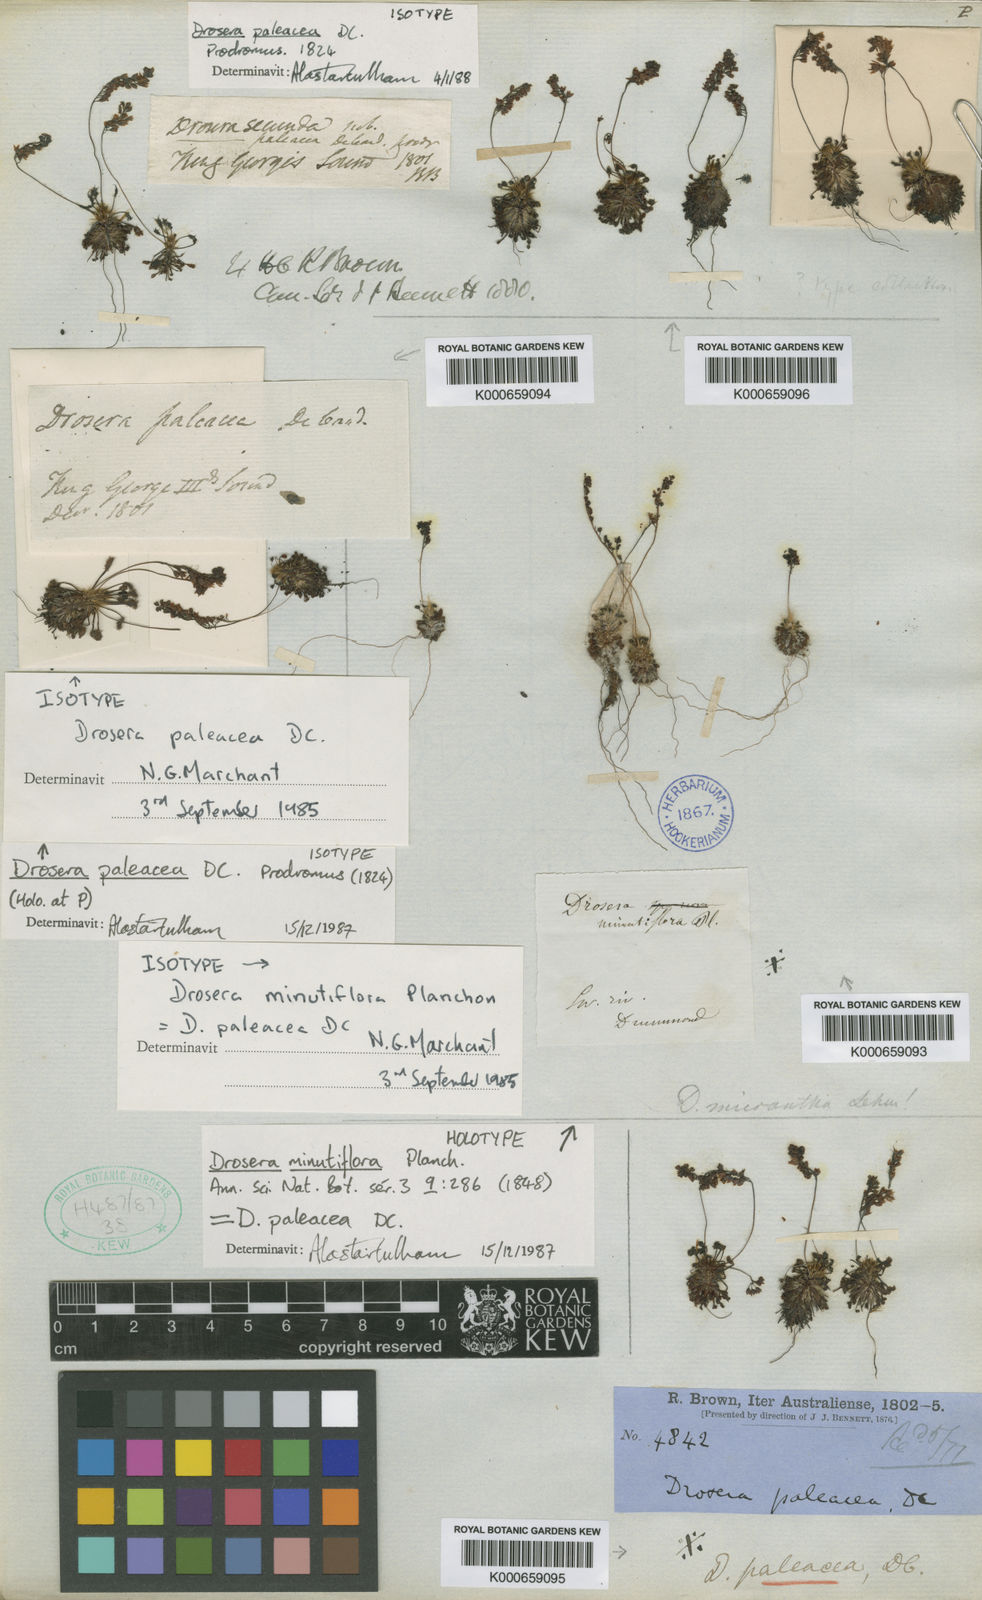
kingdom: Plantae
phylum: Tracheophyta
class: Magnoliopsida
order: Caryophyllales
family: Droseraceae
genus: Drosera
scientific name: Drosera paleacea
